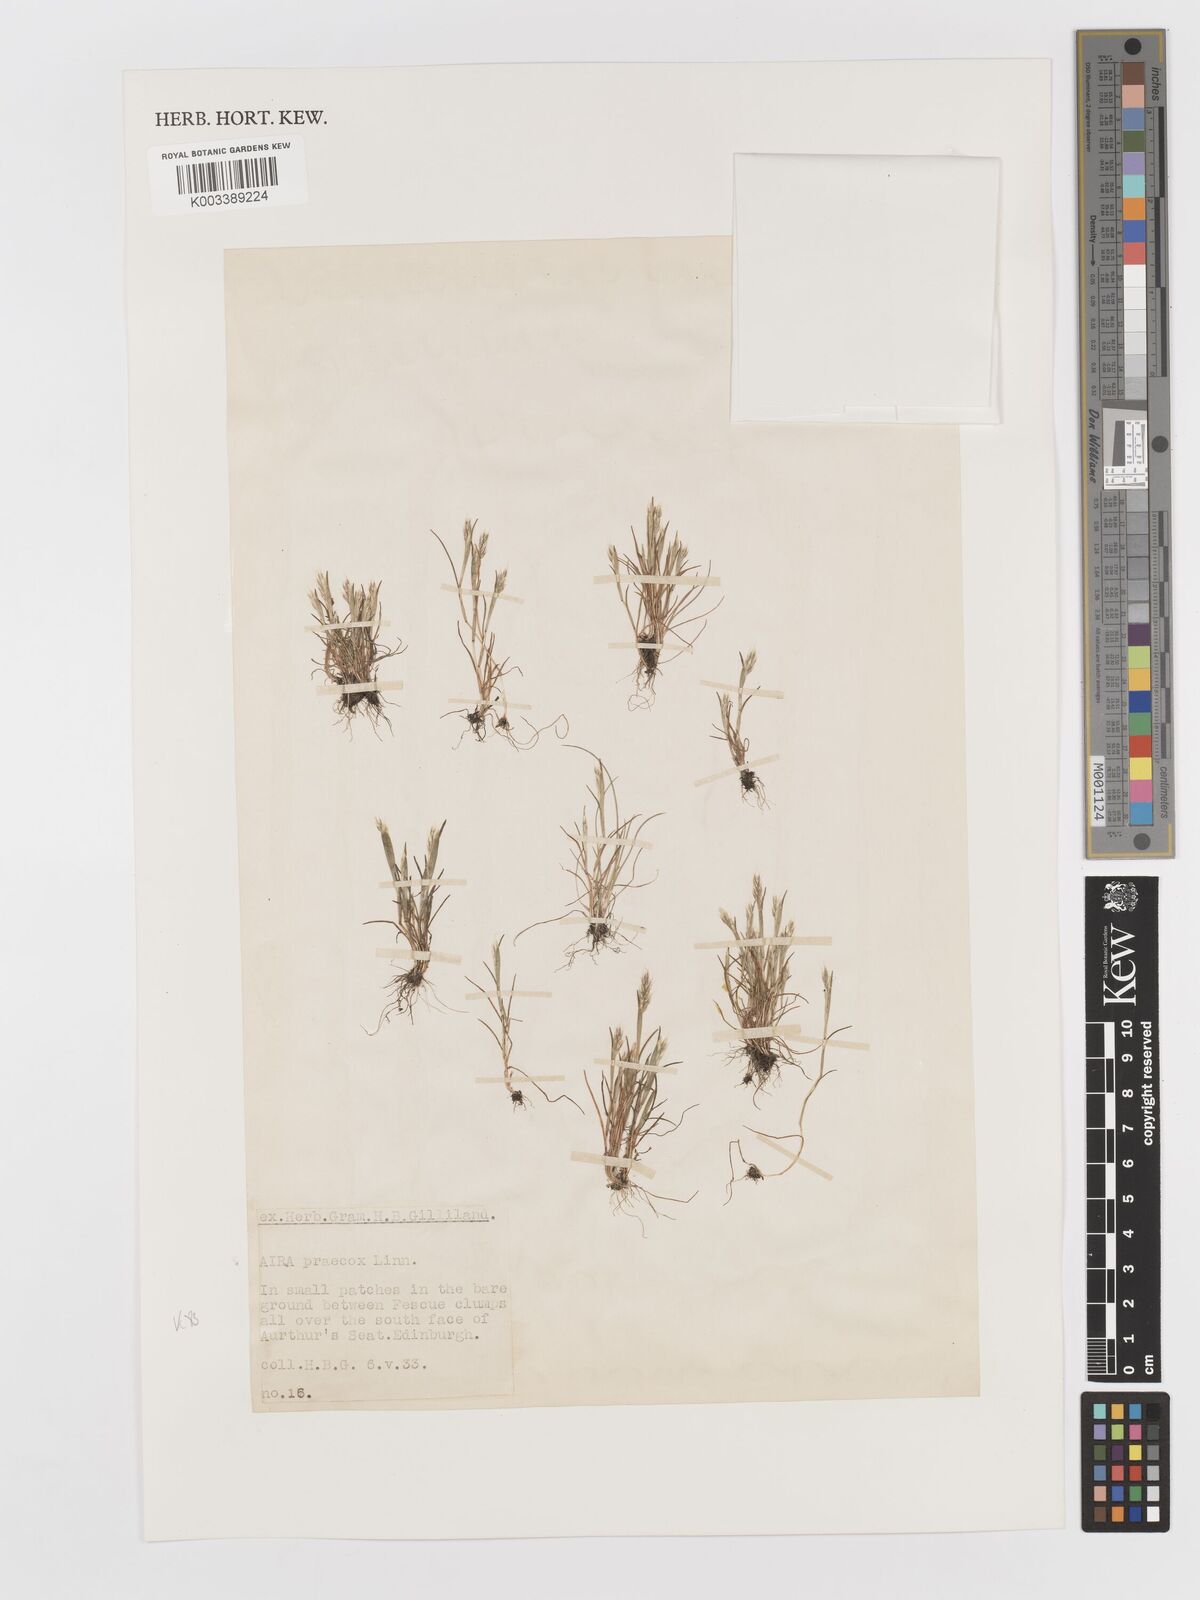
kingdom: Plantae
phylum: Tracheophyta
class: Liliopsida
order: Poales
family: Poaceae
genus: Aira
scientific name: Aira praecox
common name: Early hair-grass
